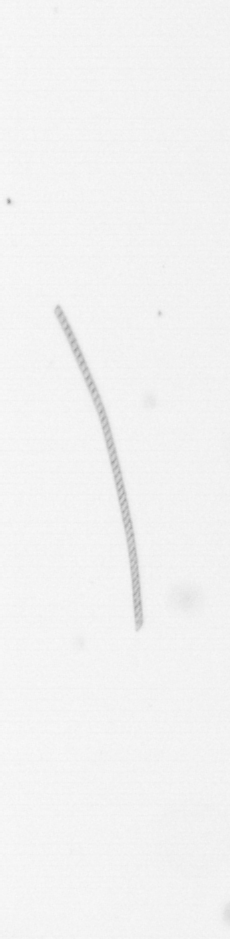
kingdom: Chromista
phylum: Ochrophyta
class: Bacillariophyceae
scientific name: Bacillariophyceae
